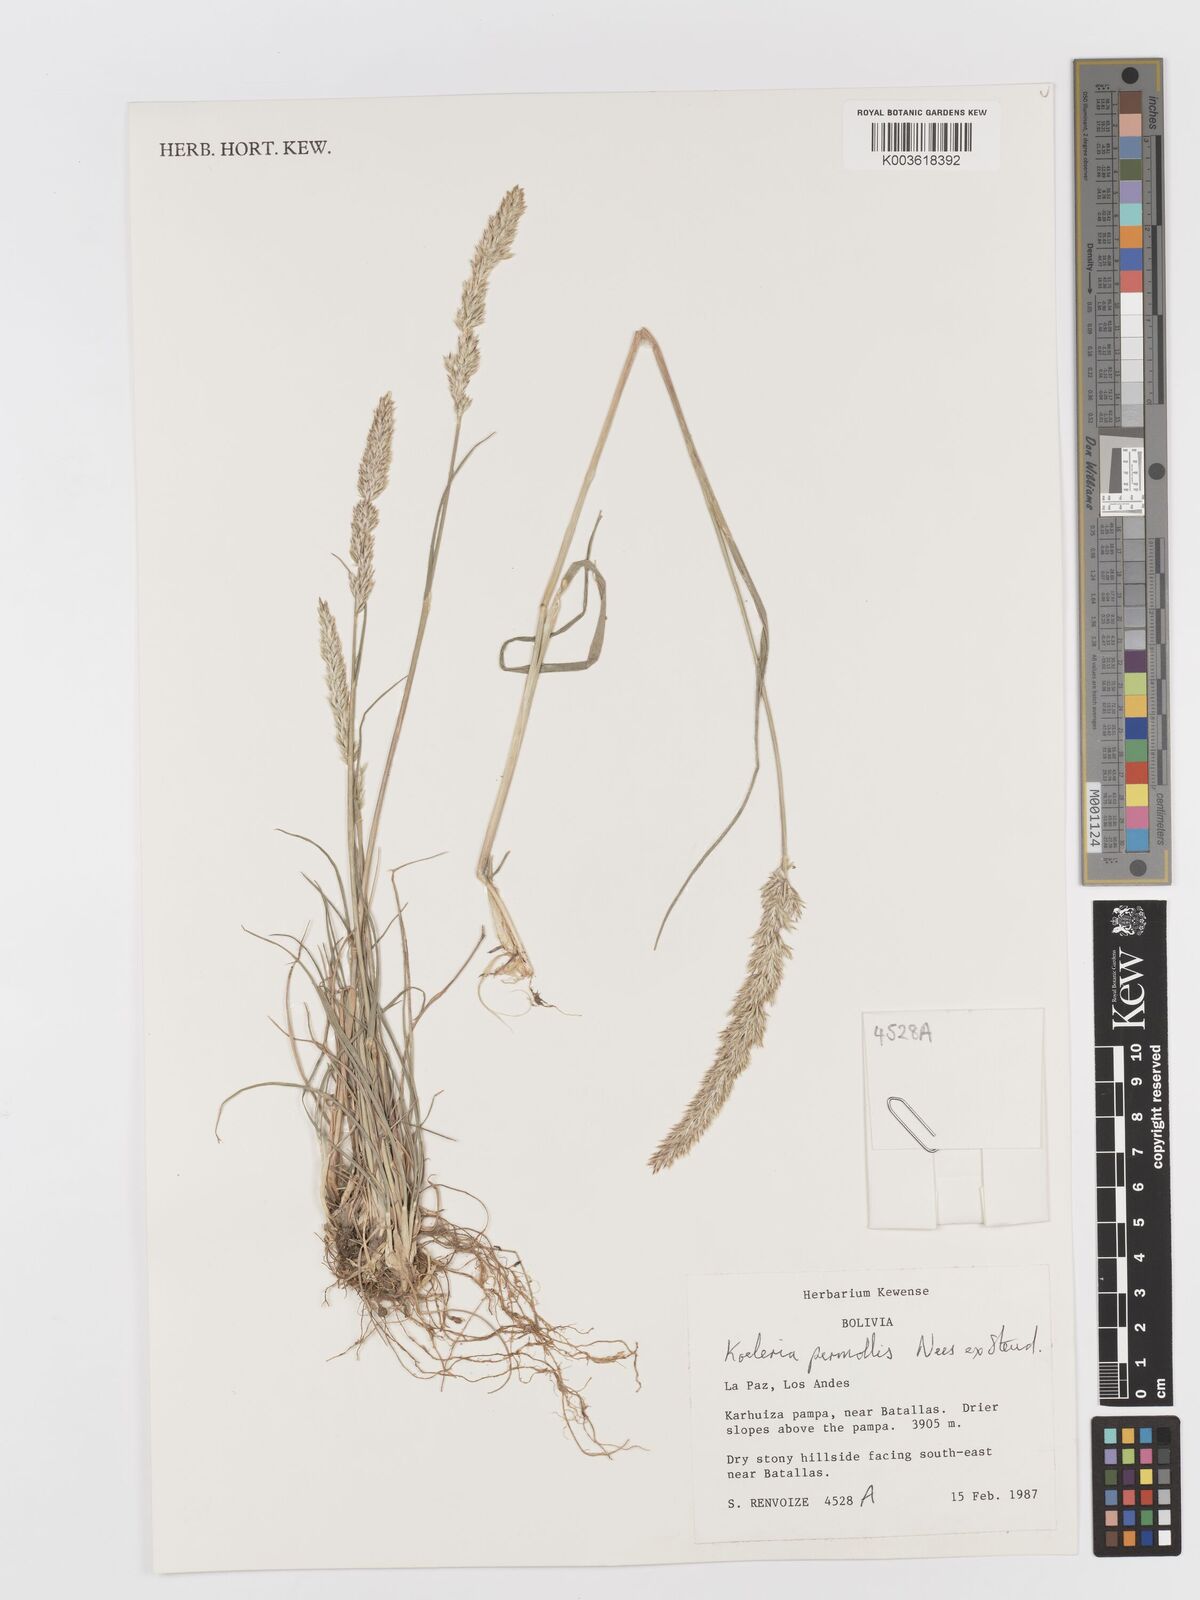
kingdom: Plantae
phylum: Tracheophyta
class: Liliopsida
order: Poales
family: Poaceae
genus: Koeleria
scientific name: Koeleria permollis
